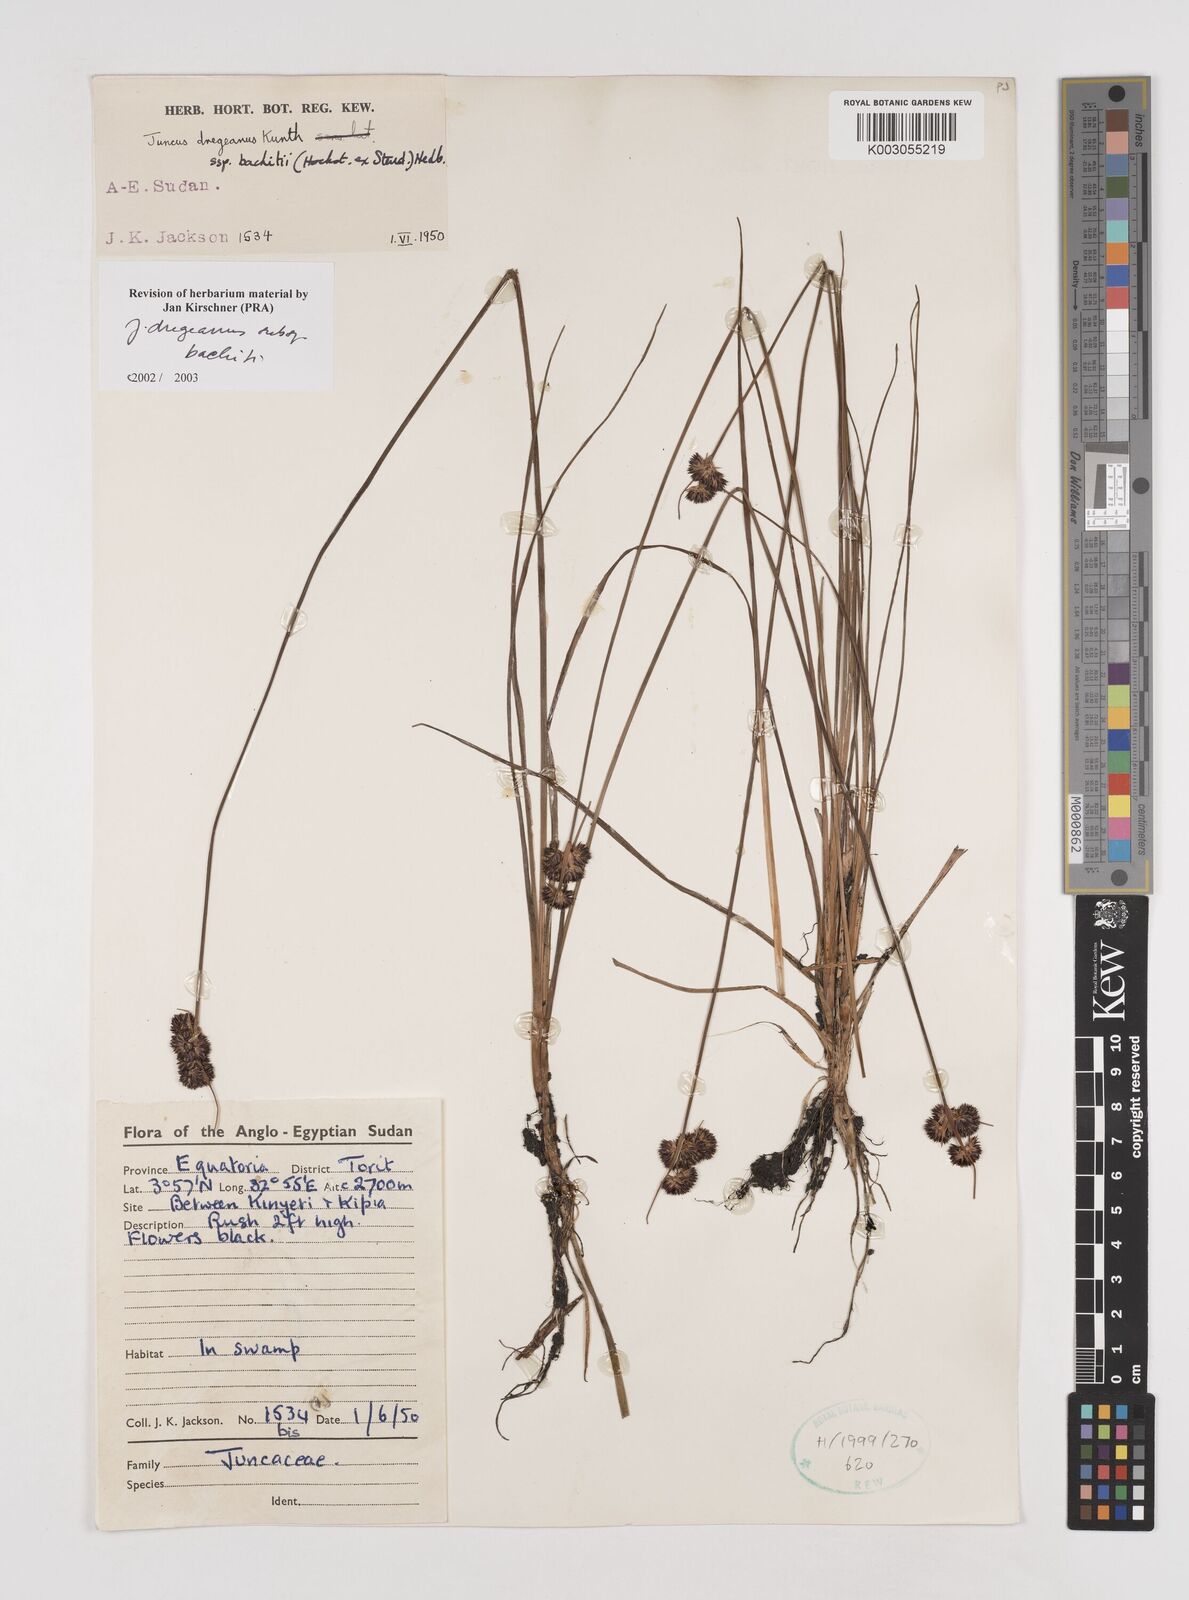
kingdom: Plantae
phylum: Tracheophyta
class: Liliopsida
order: Poales
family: Juncaceae
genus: Juncus
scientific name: Juncus dregeanus
